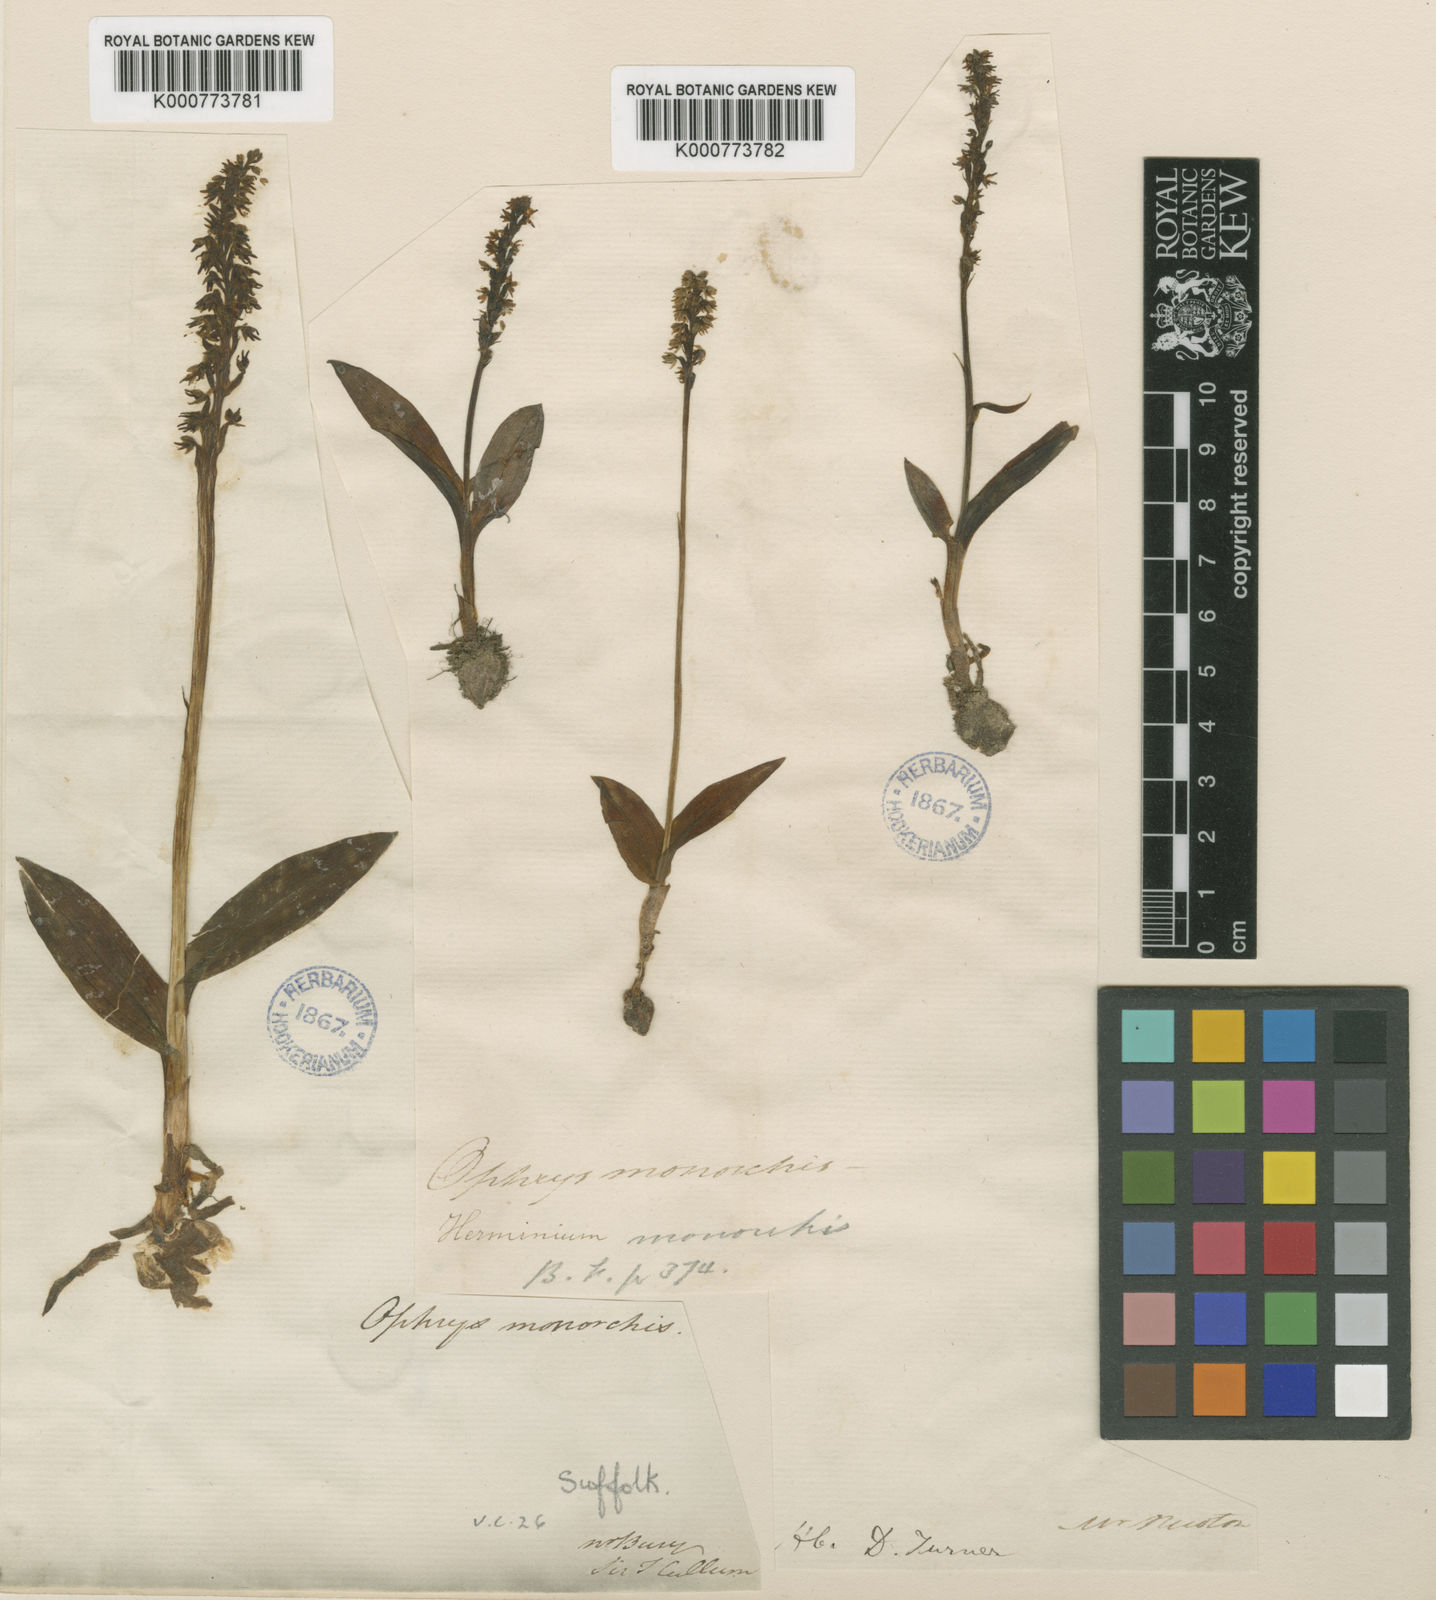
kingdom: Plantae
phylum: Tracheophyta
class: Liliopsida
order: Asparagales
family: Orchidaceae
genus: Herminium
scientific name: Herminium monorchis
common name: Musk orchid
